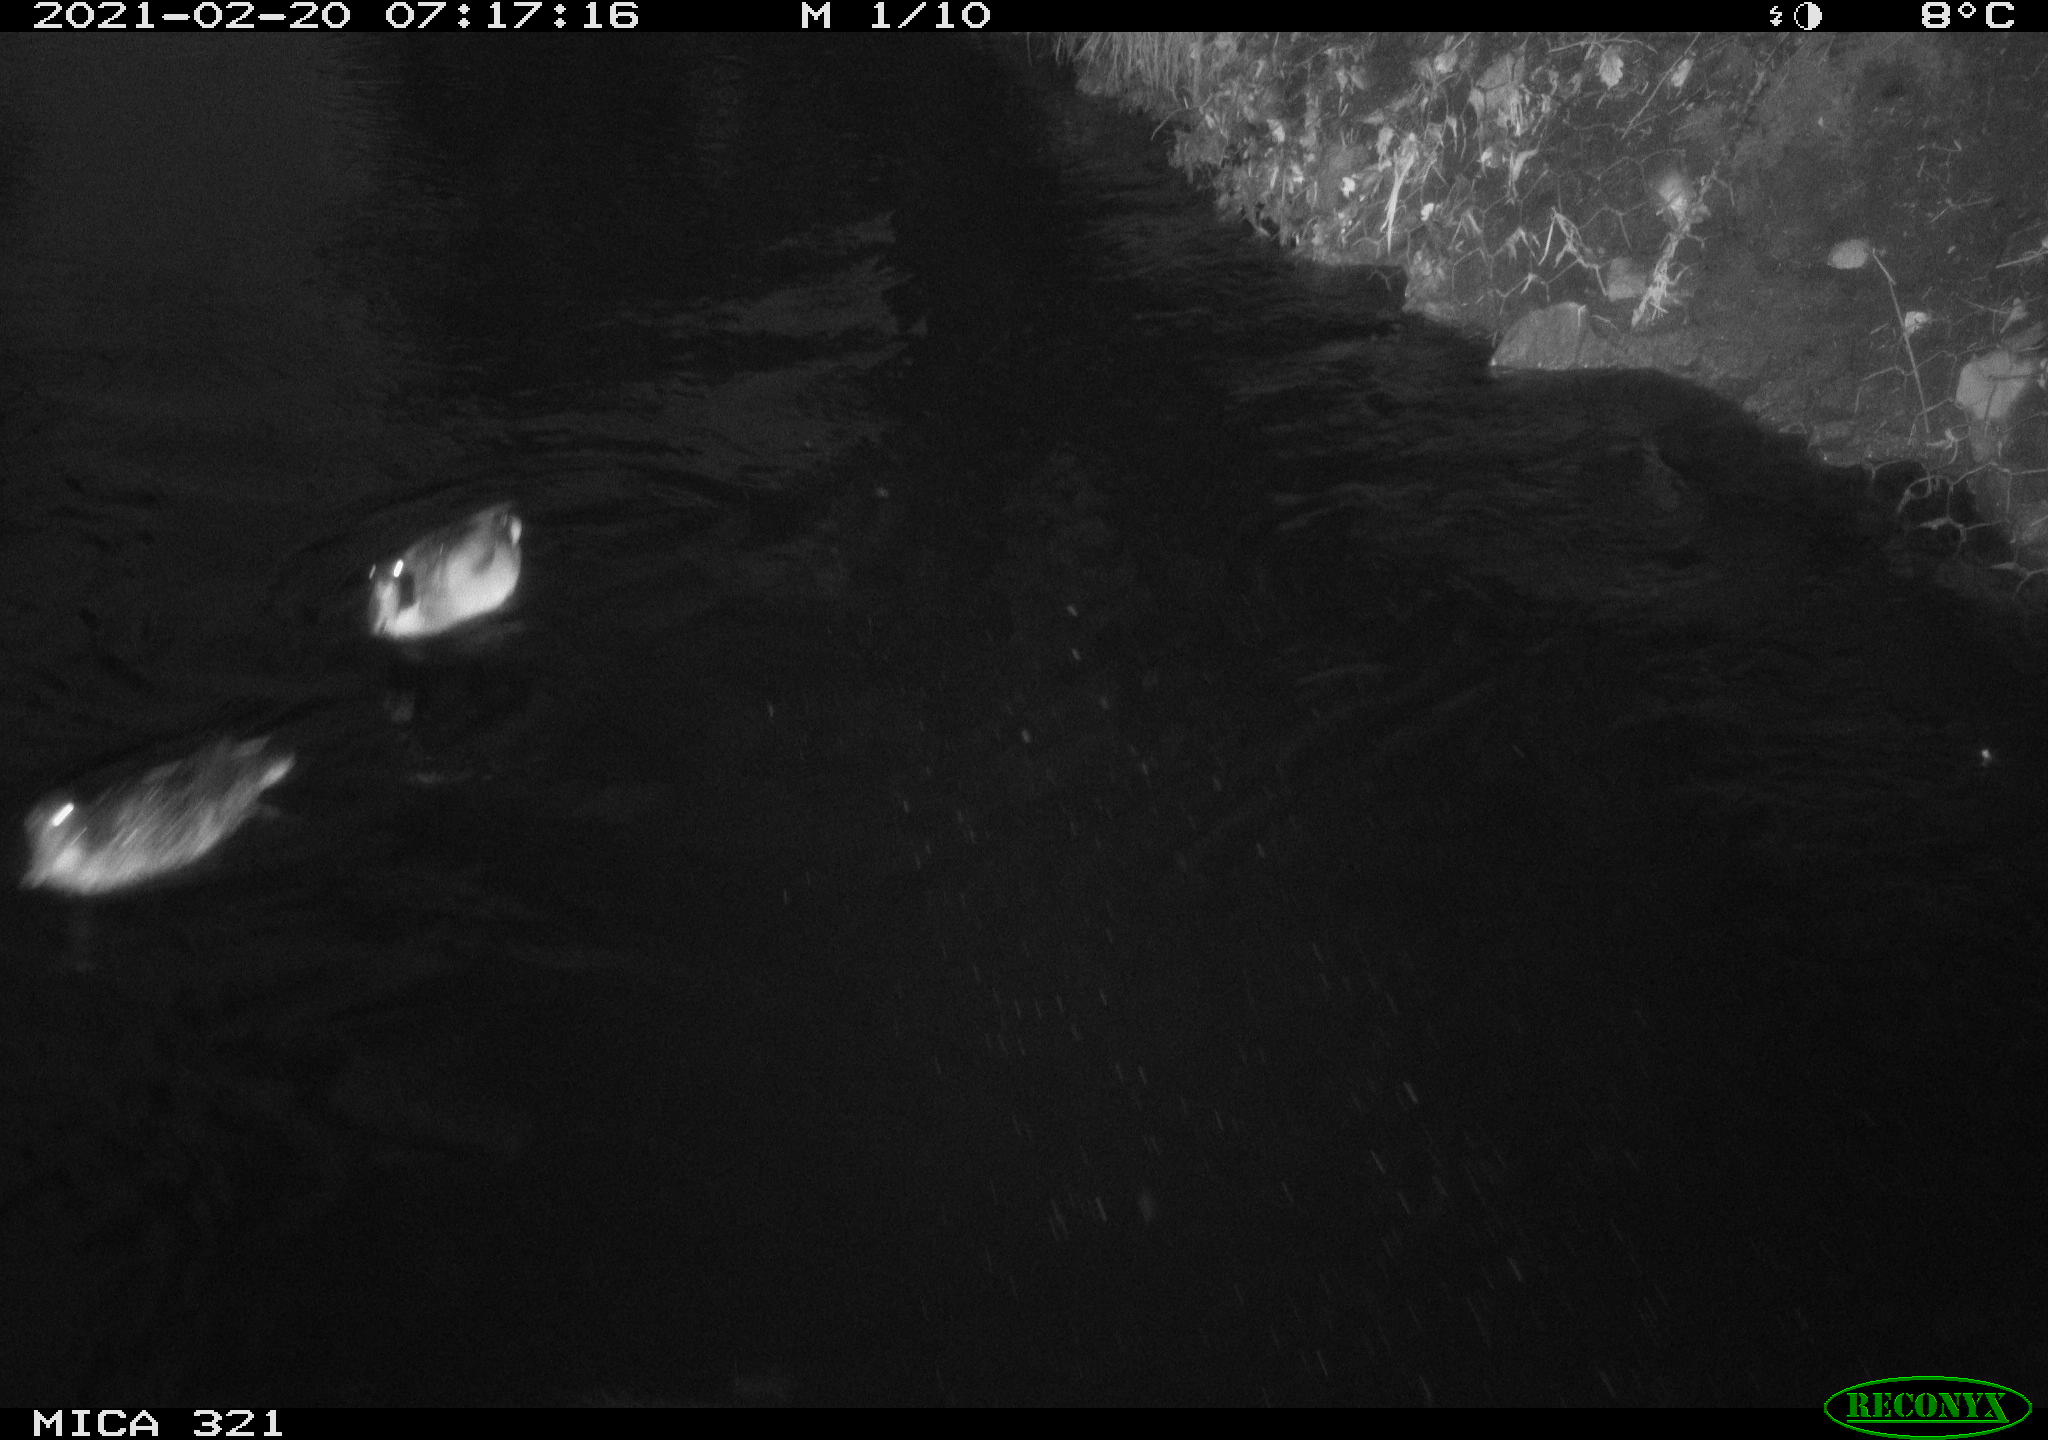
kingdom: Animalia
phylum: Chordata
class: Aves
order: Anseriformes
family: Anatidae
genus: Anas
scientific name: Anas platyrhynchos
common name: Mallard
